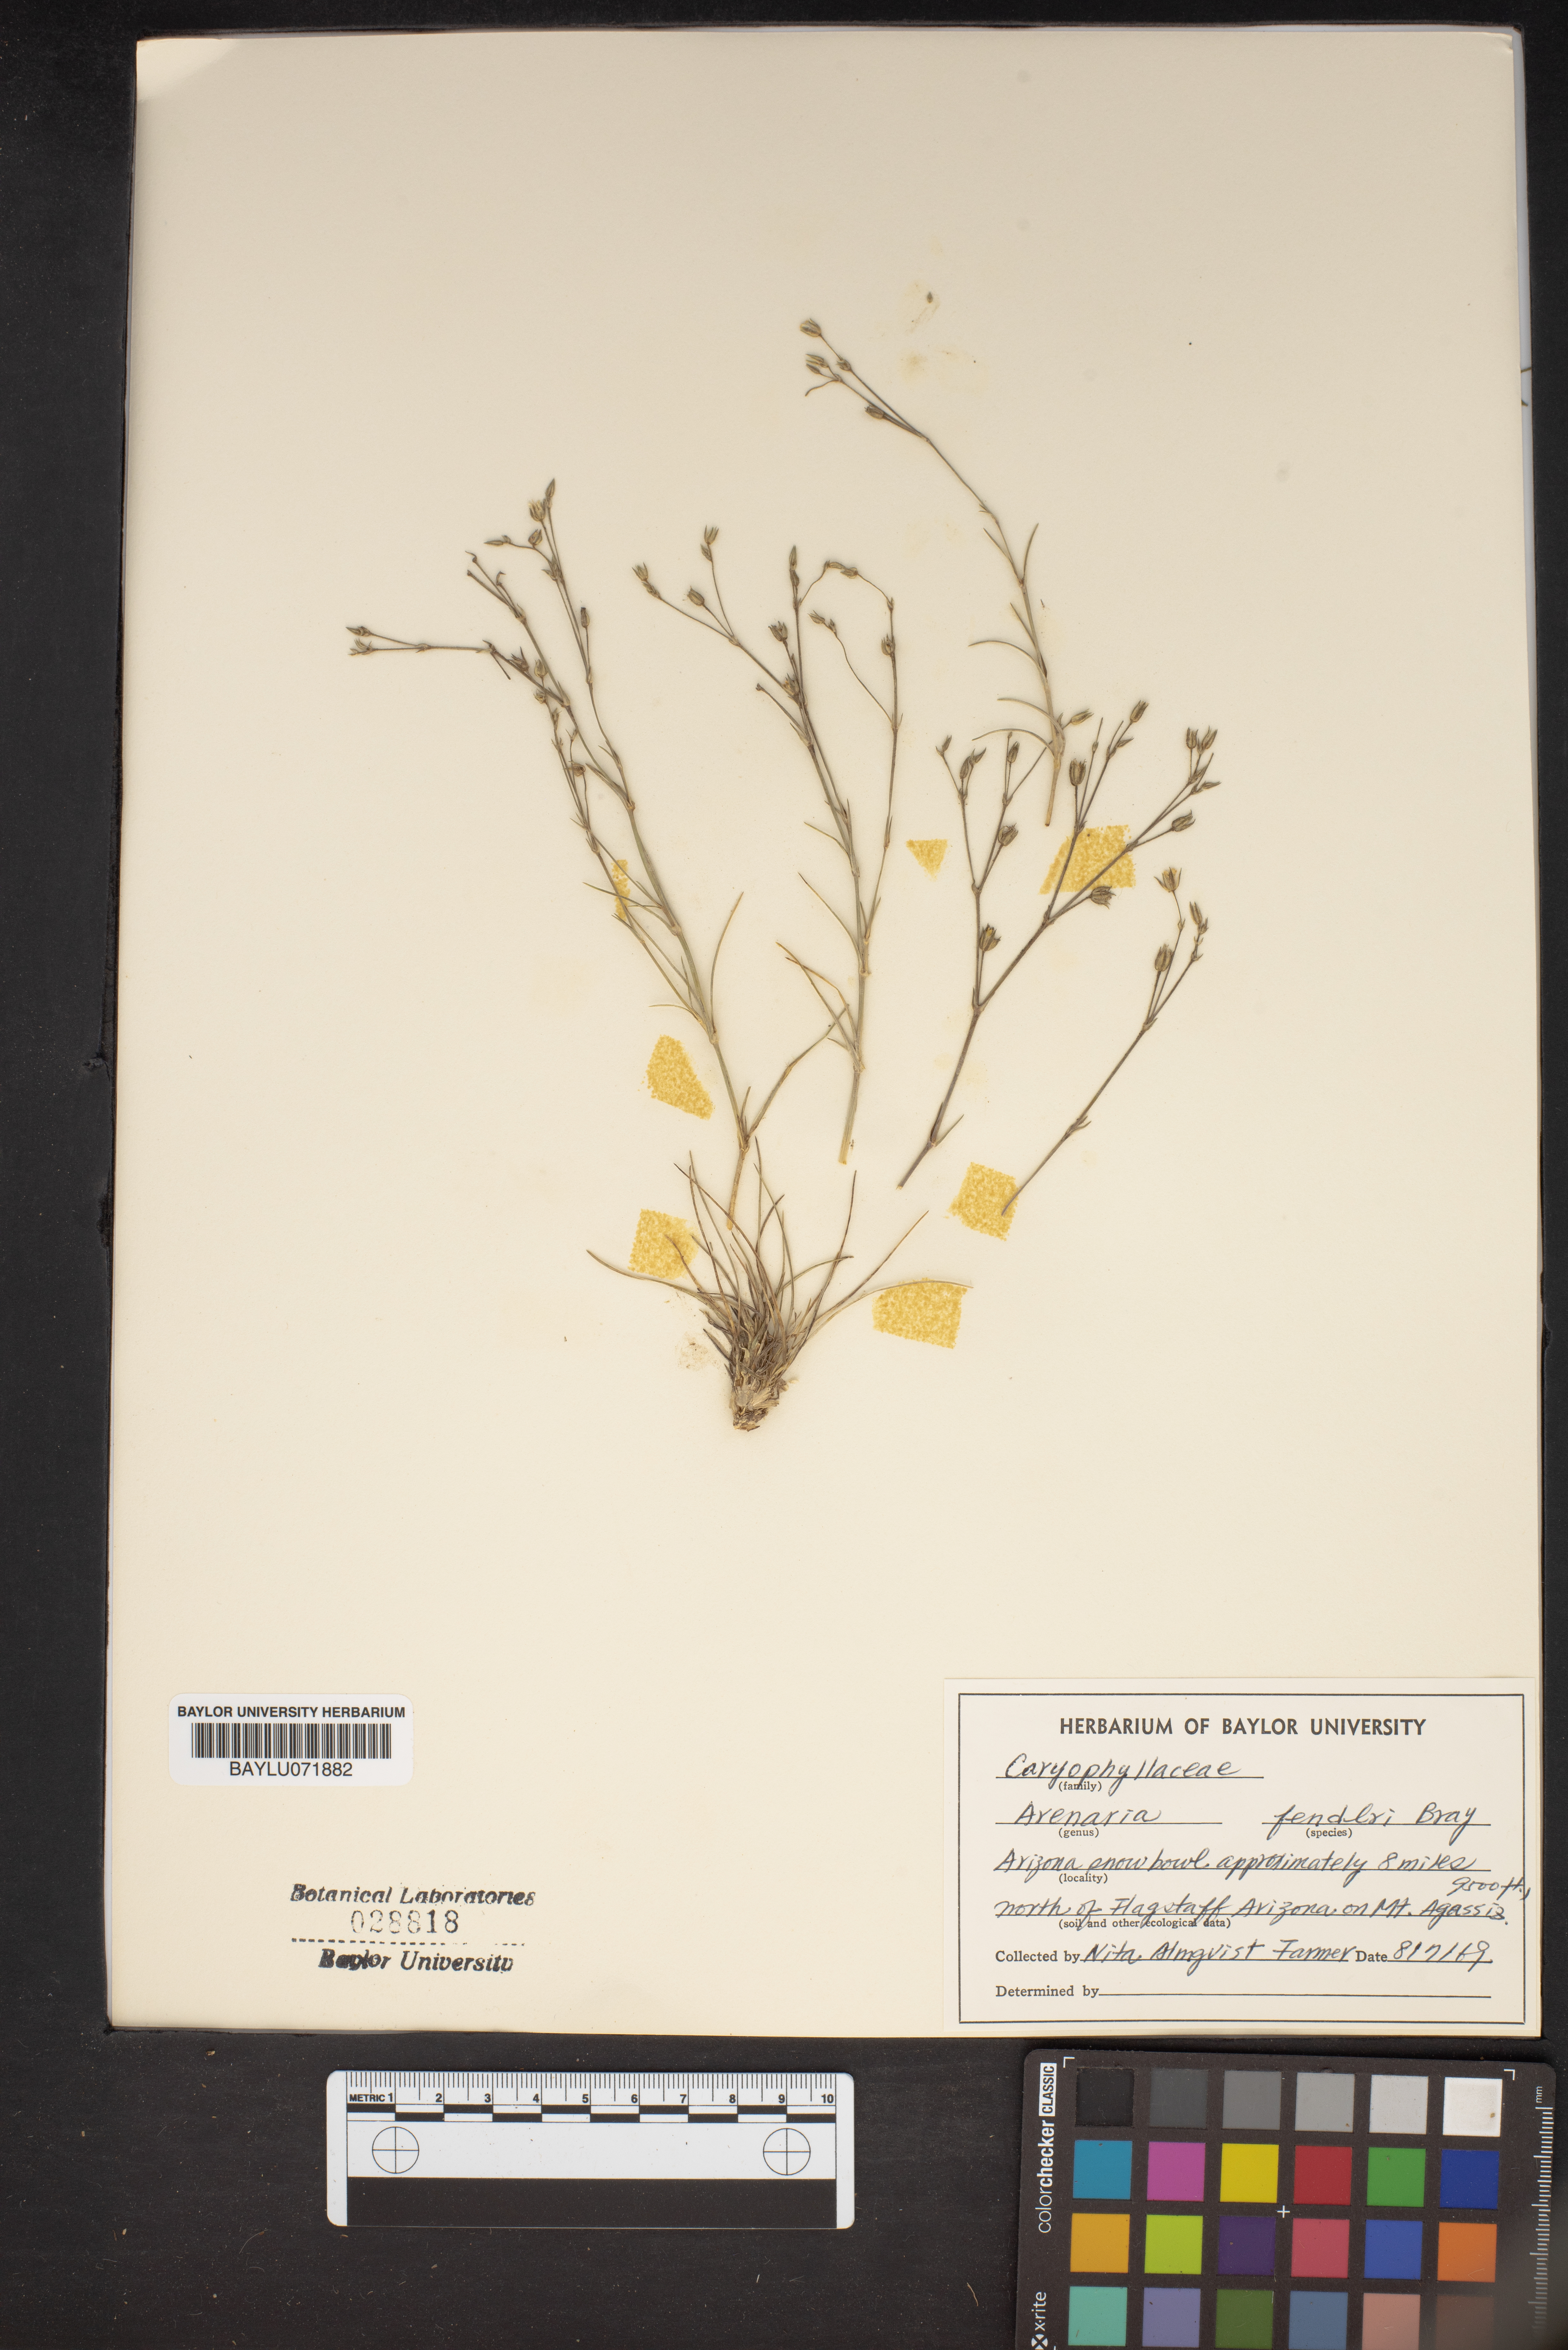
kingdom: Plantae
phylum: Tracheophyta
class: Magnoliopsida
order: Caryophyllales
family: Caryophyllaceae
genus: Eremogone
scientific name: Eremogone fendleri
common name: Fendler's sandwort
